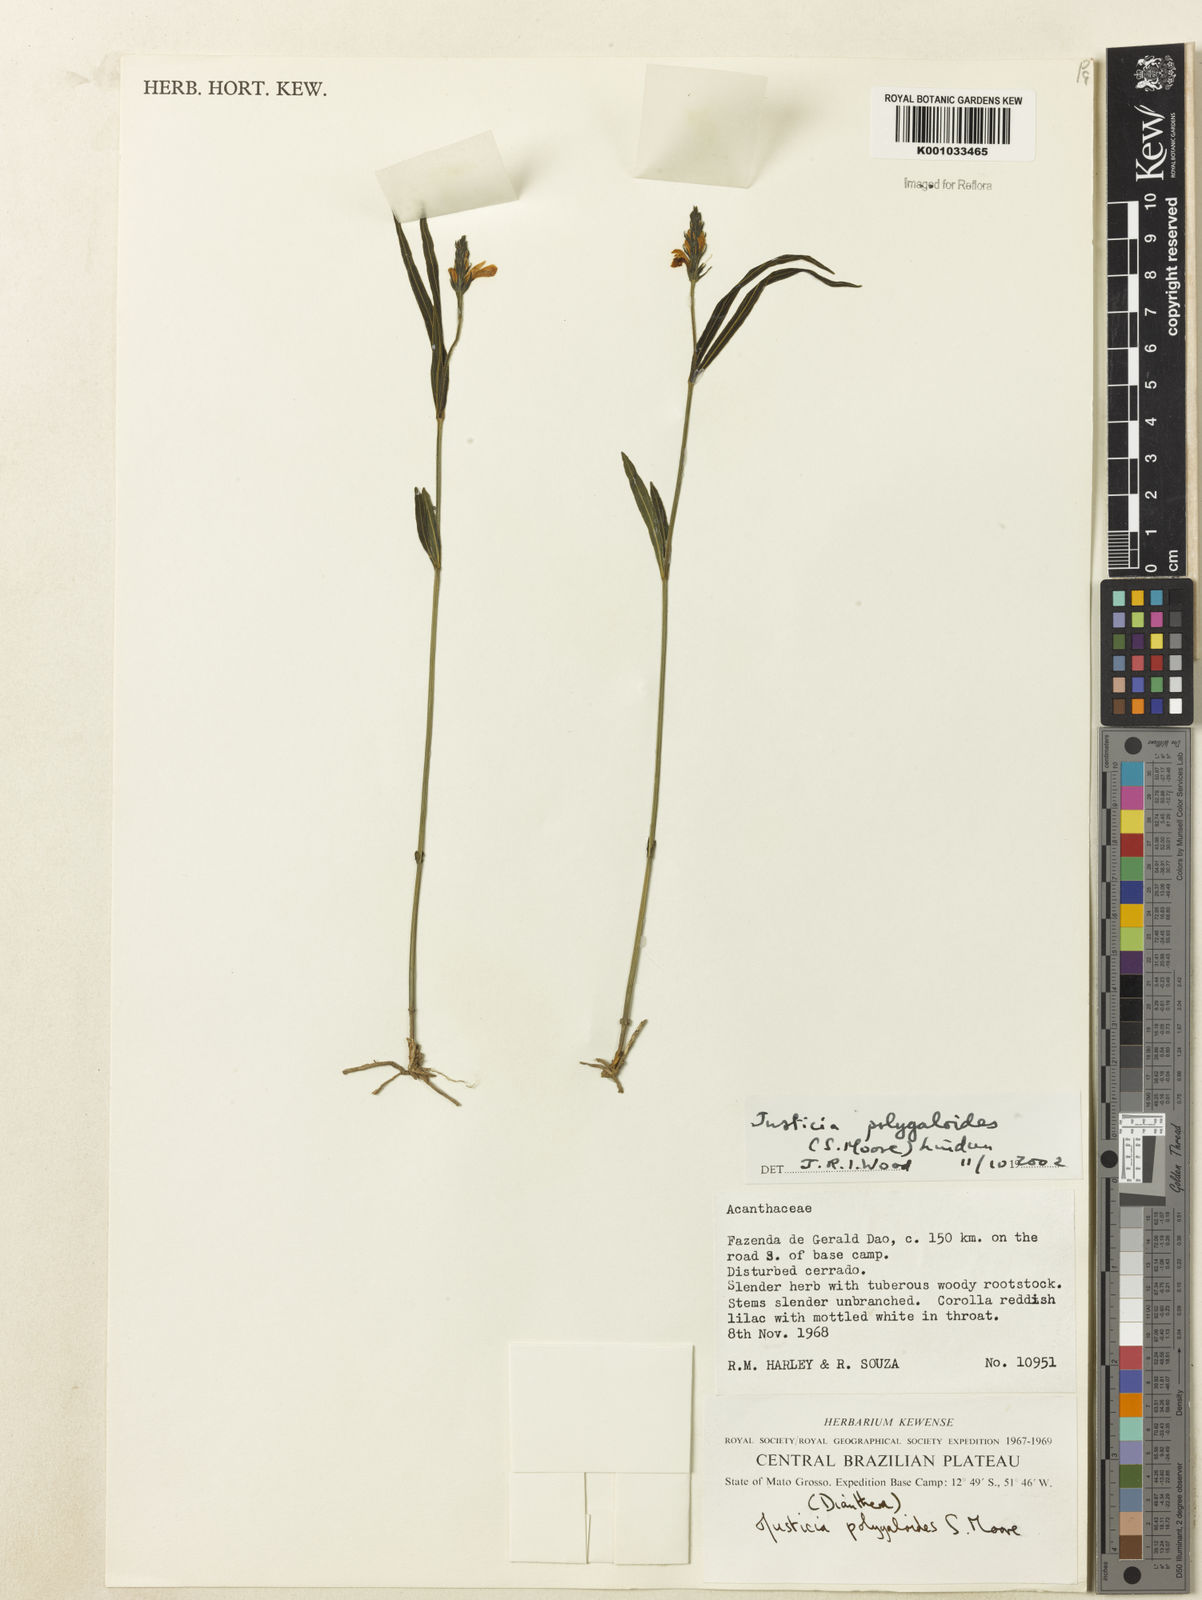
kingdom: Plantae
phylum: Tracheophyta
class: Magnoliopsida
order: Lamiales
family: Acanthaceae
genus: Dianthera
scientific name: Dianthera polygaloides
